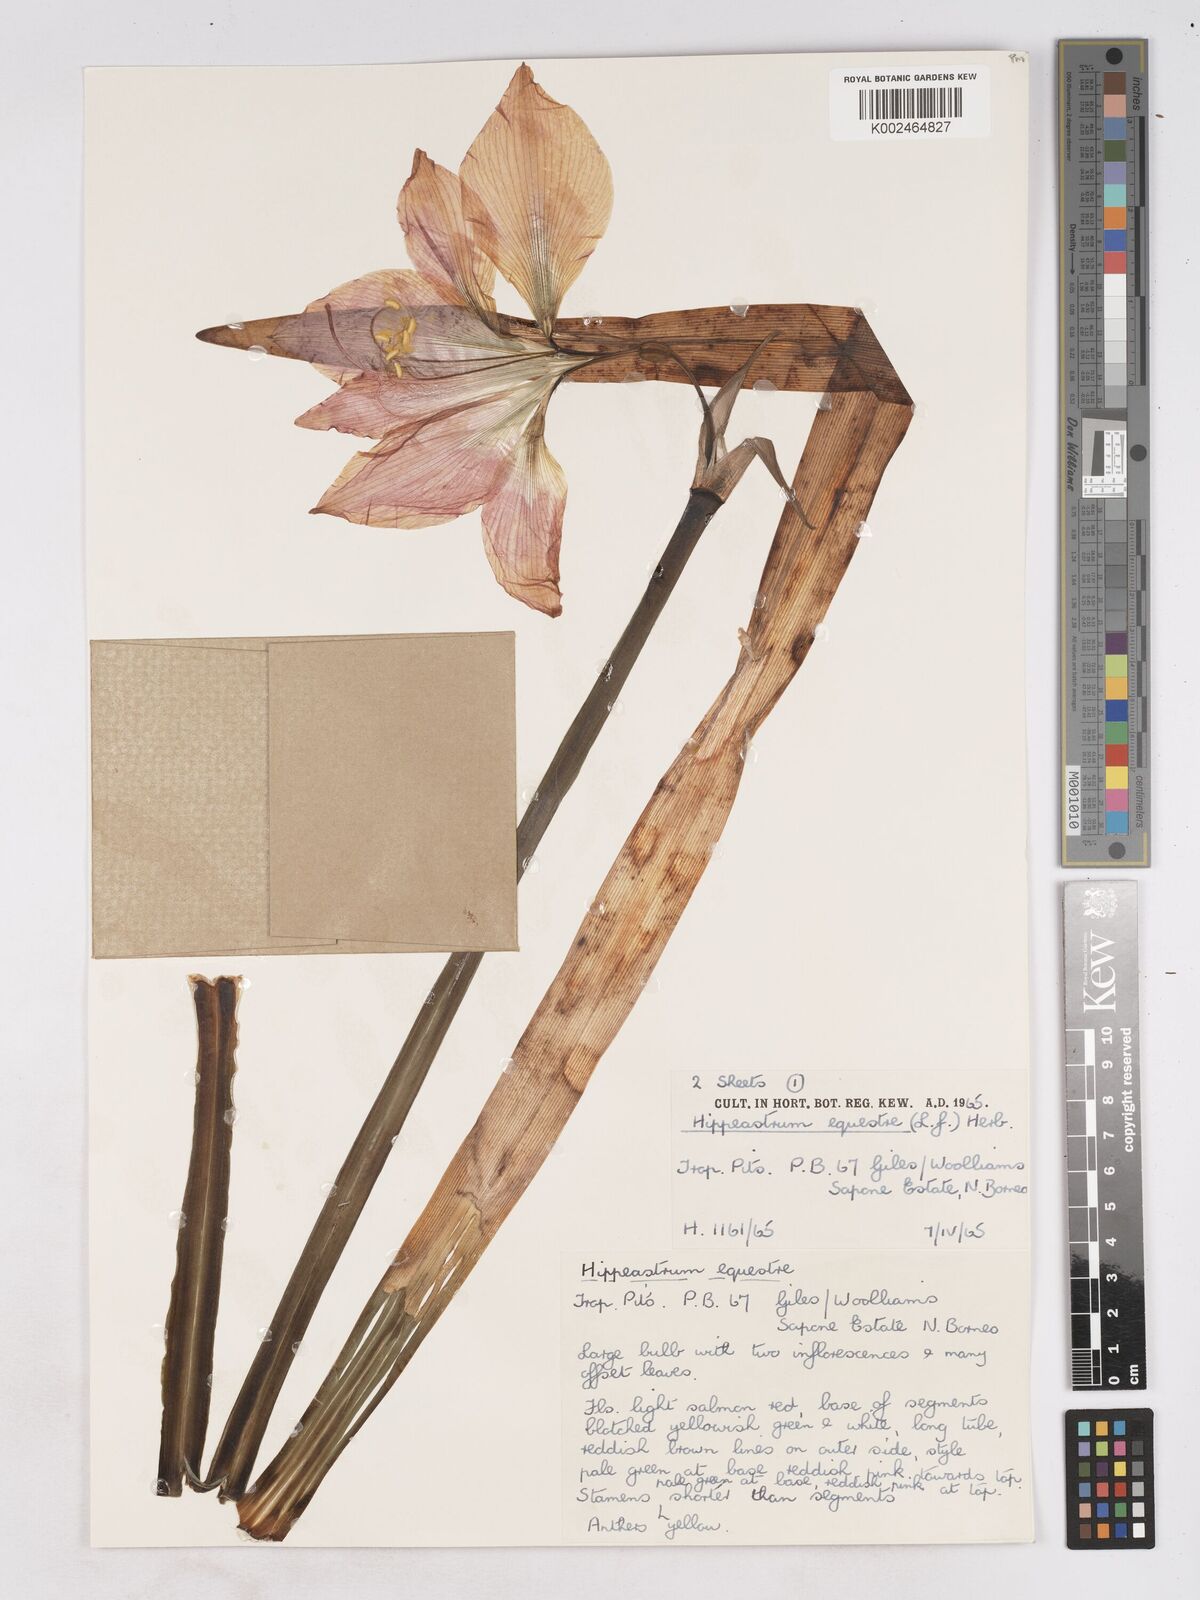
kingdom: Plantae
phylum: Tracheophyta
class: Liliopsida
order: Asparagales
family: Amaryllidaceae
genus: Hippeastrum
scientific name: Hippeastrum puniceum
